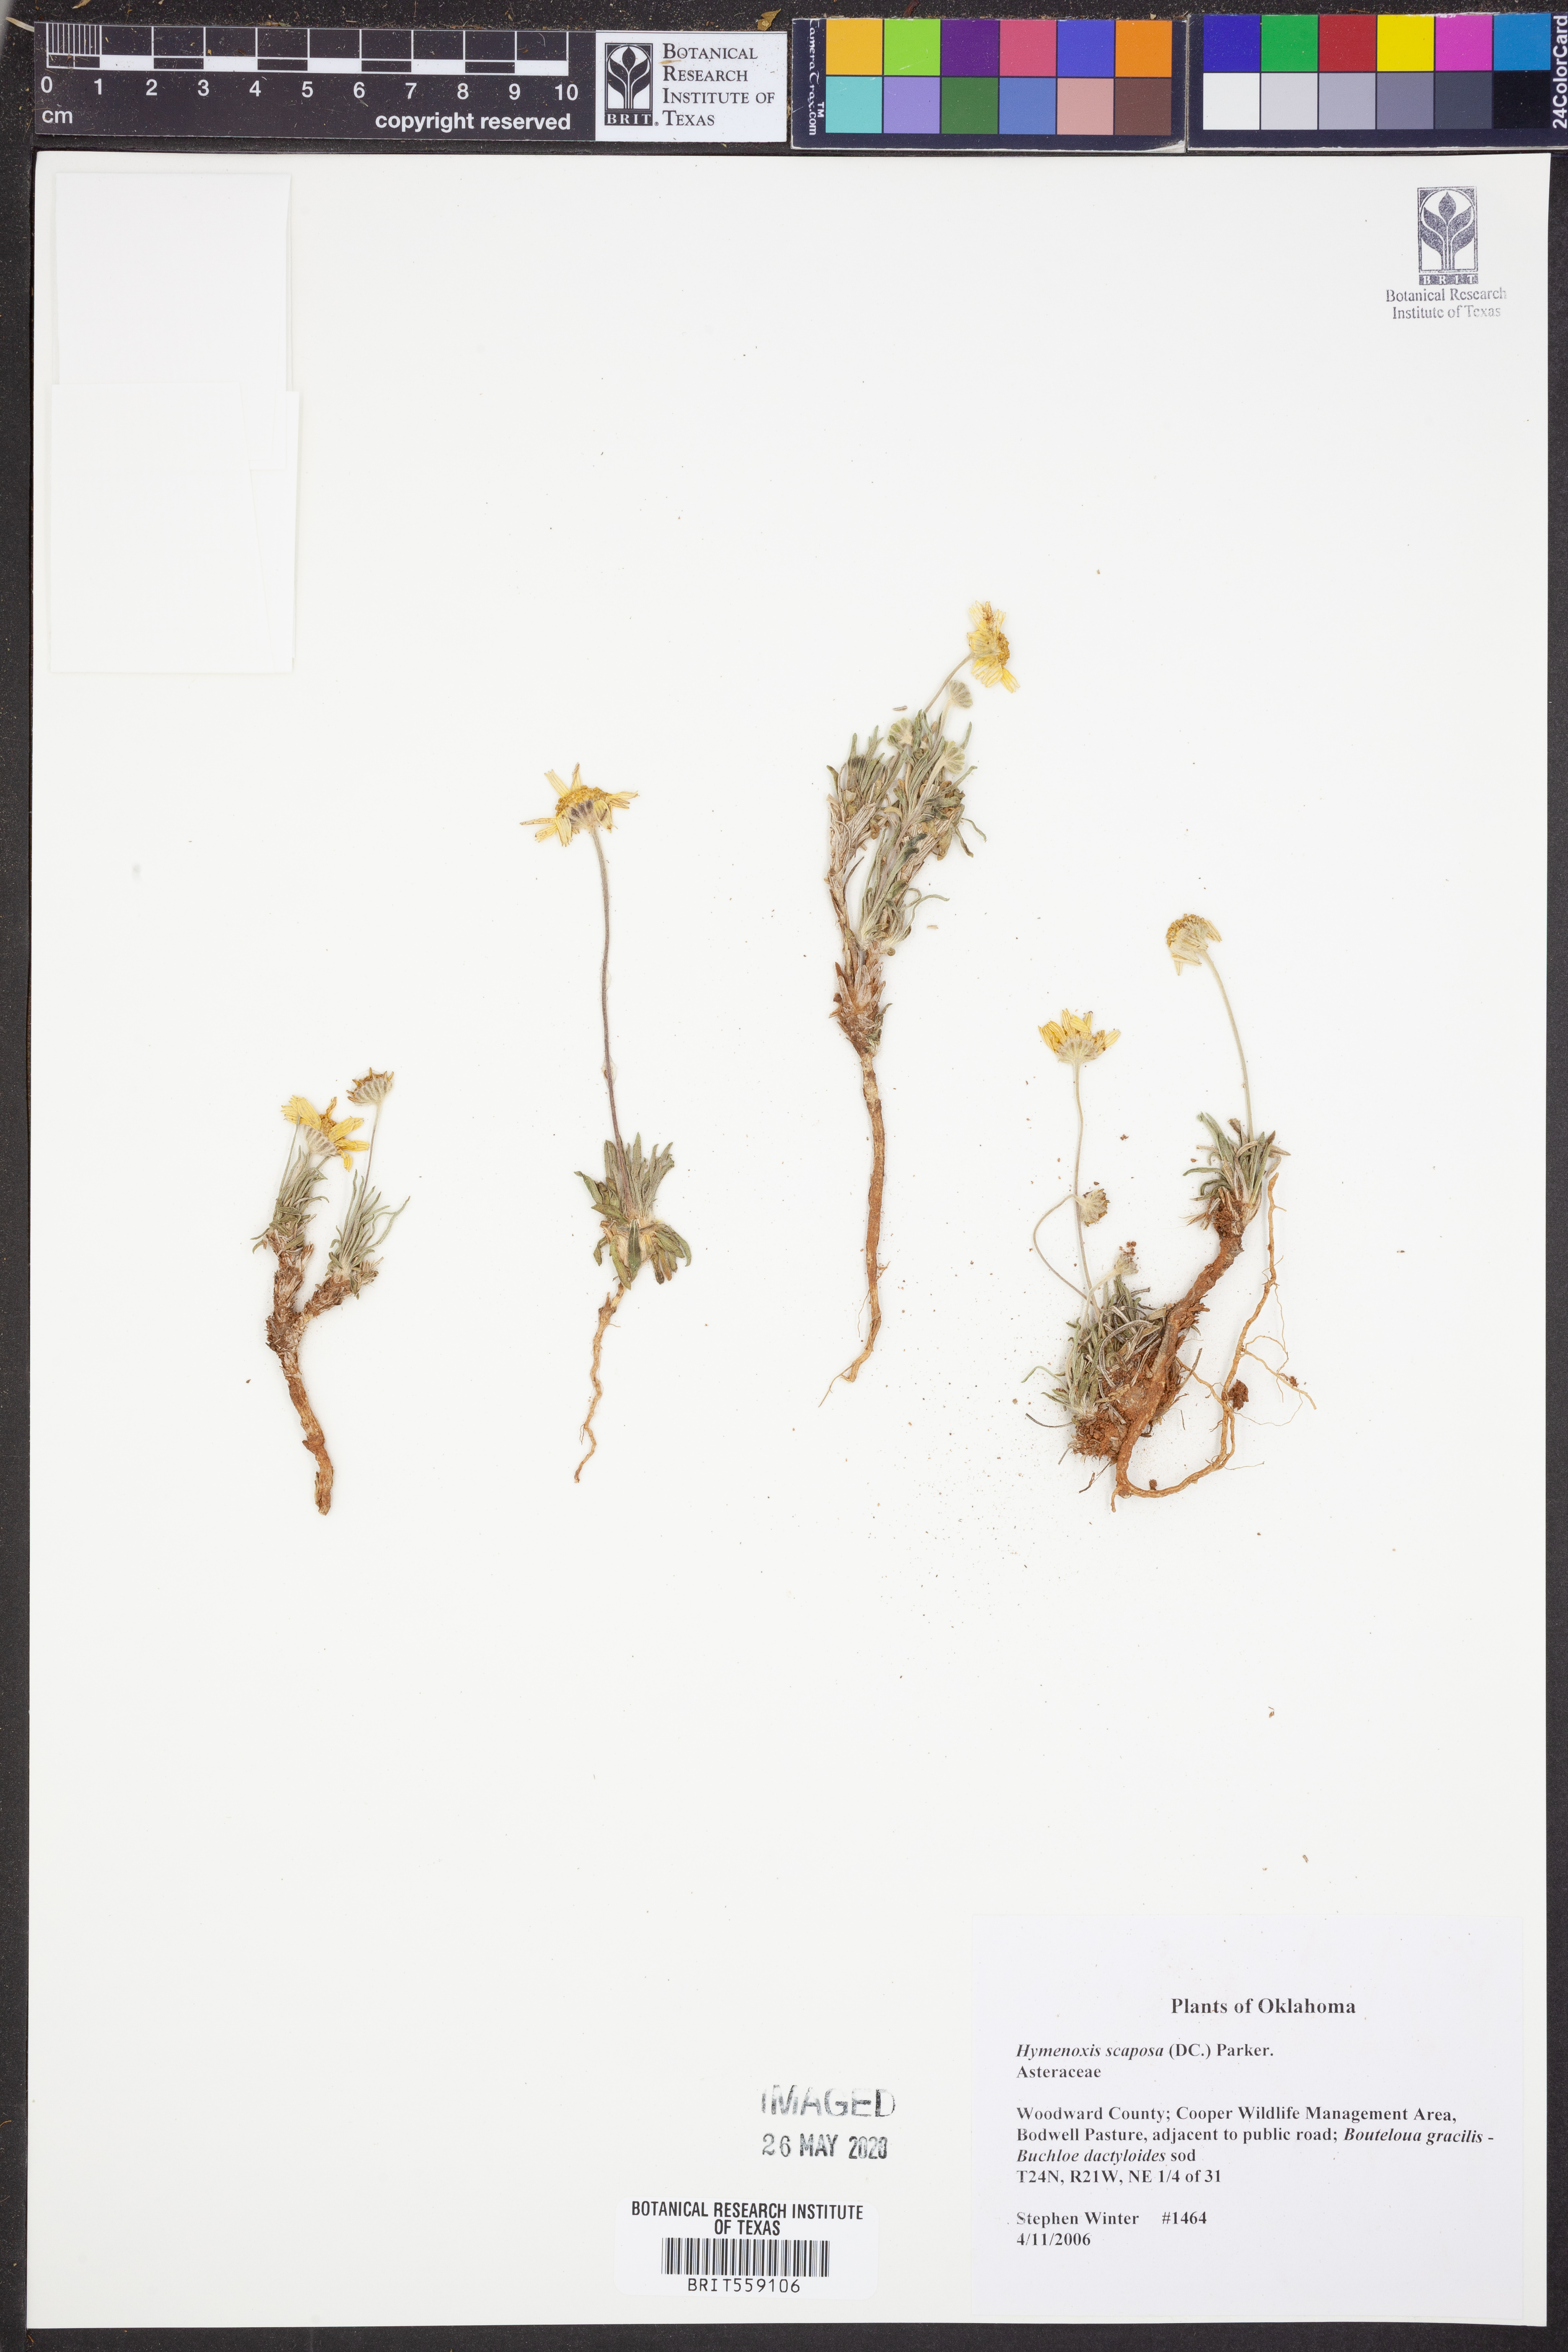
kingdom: Plantae
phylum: Tracheophyta
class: Magnoliopsida
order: Asterales
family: Asteraceae
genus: Tetraneuris
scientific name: Tetraneuris scaposa
